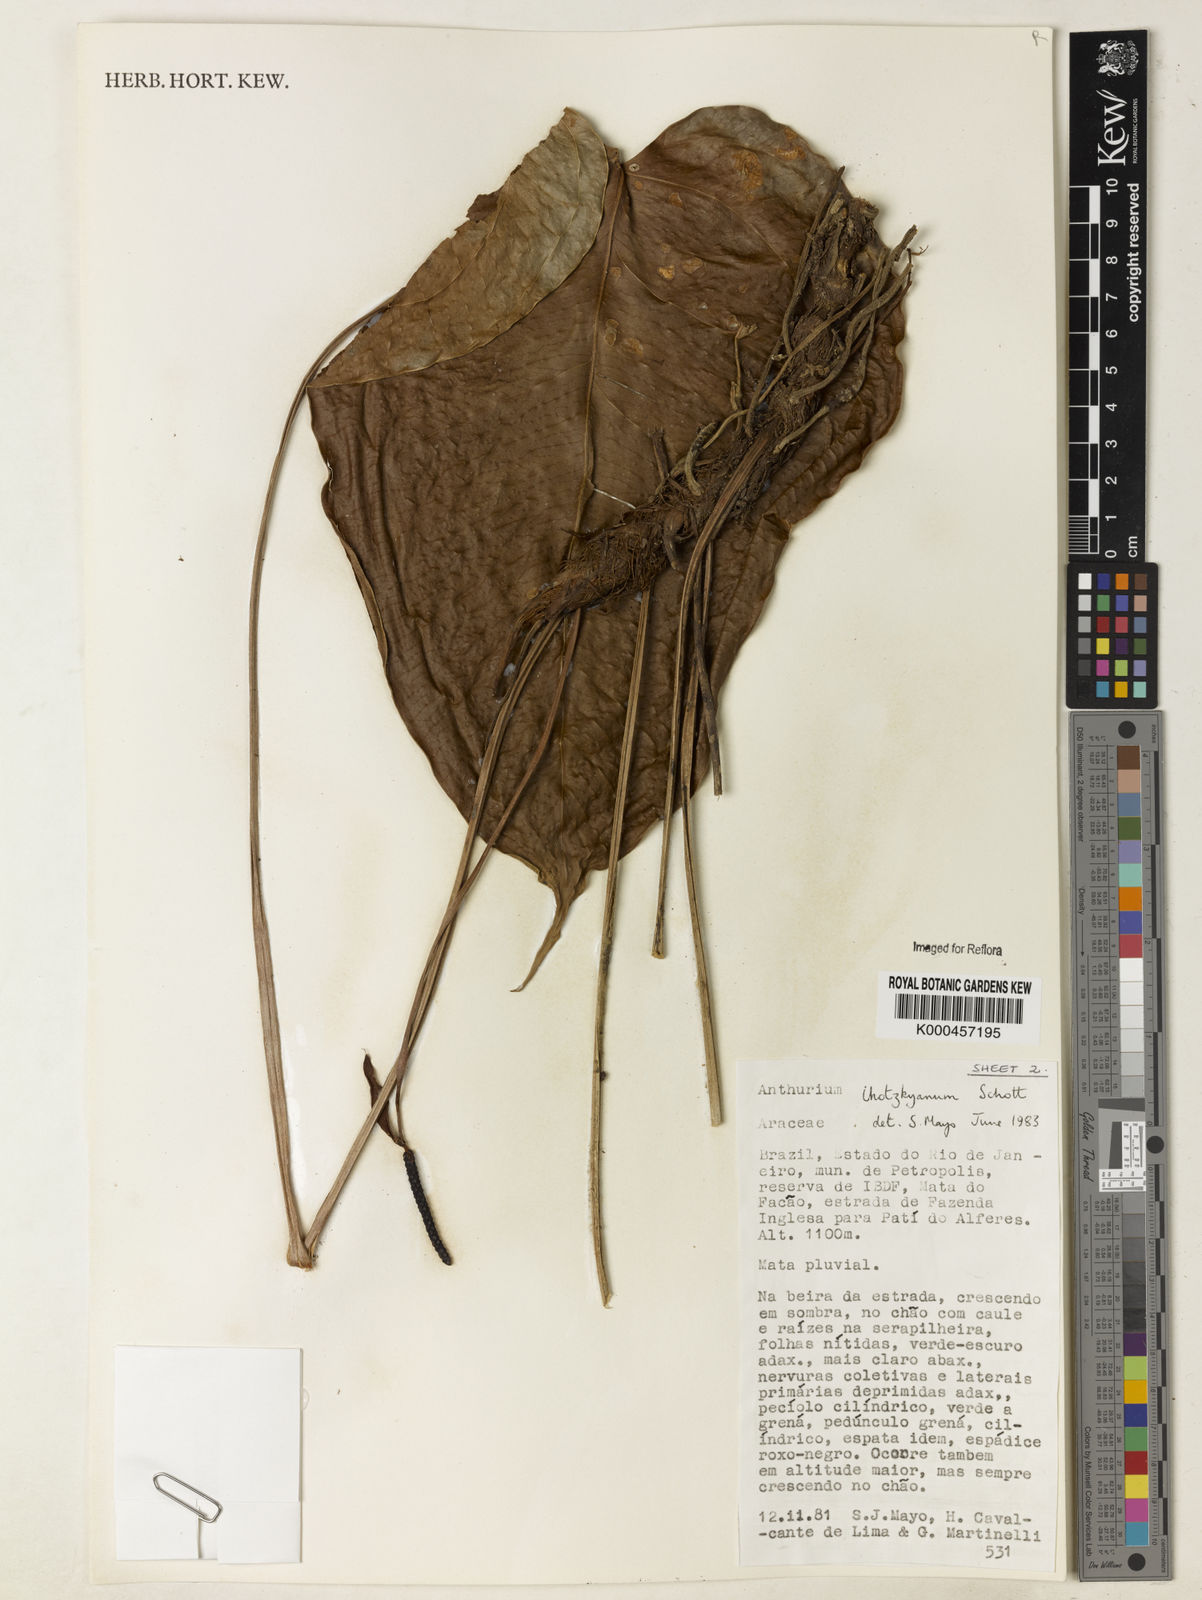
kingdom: Plantae
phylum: Tracheophyta
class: Liliopsida
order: Alismatales
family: Araceae
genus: Anthurium
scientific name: Anthurium augustinum
